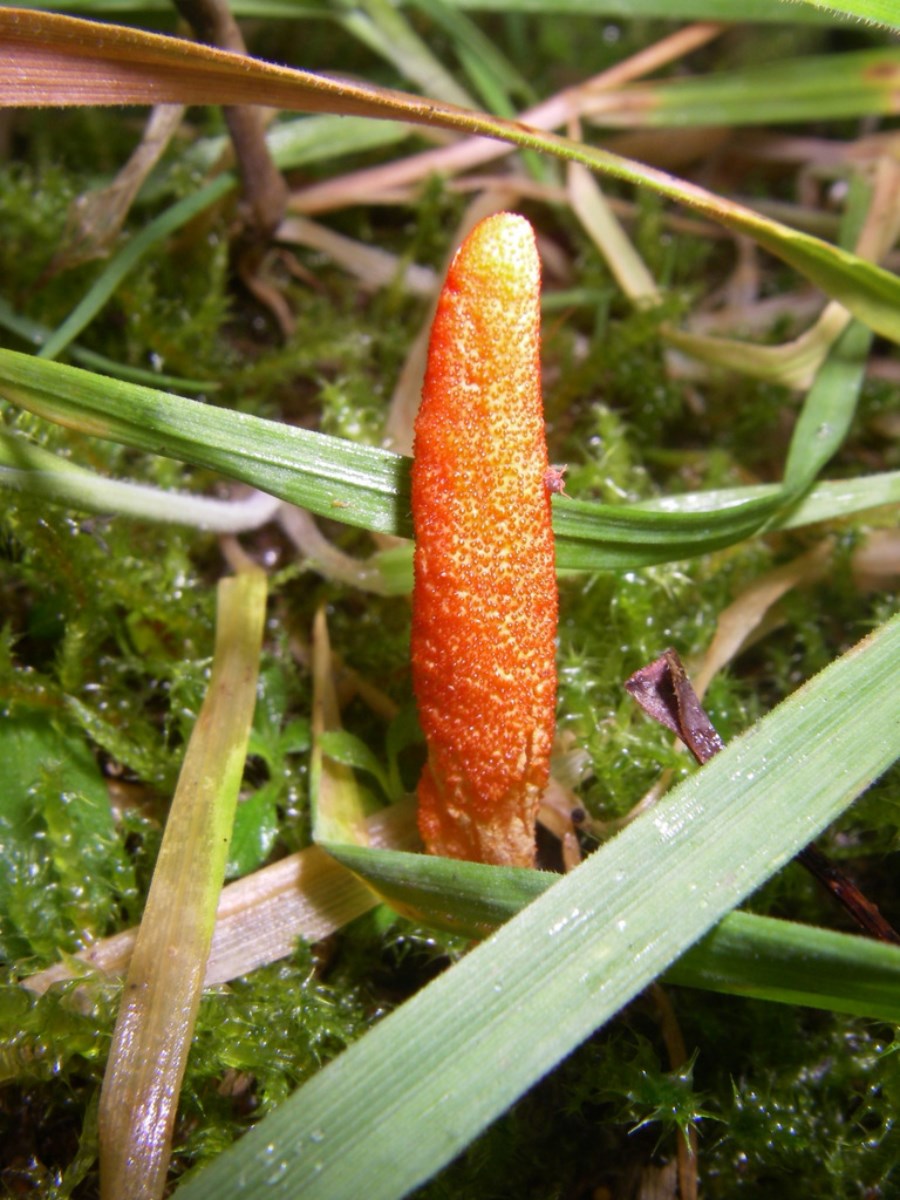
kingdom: Fungi
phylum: Ascomycota
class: Sordariomycetes
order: Hypocreales
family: Cordycipitaceae
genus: Cordyceps
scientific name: Cordyceps militaris
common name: puppe-snyltekølle
